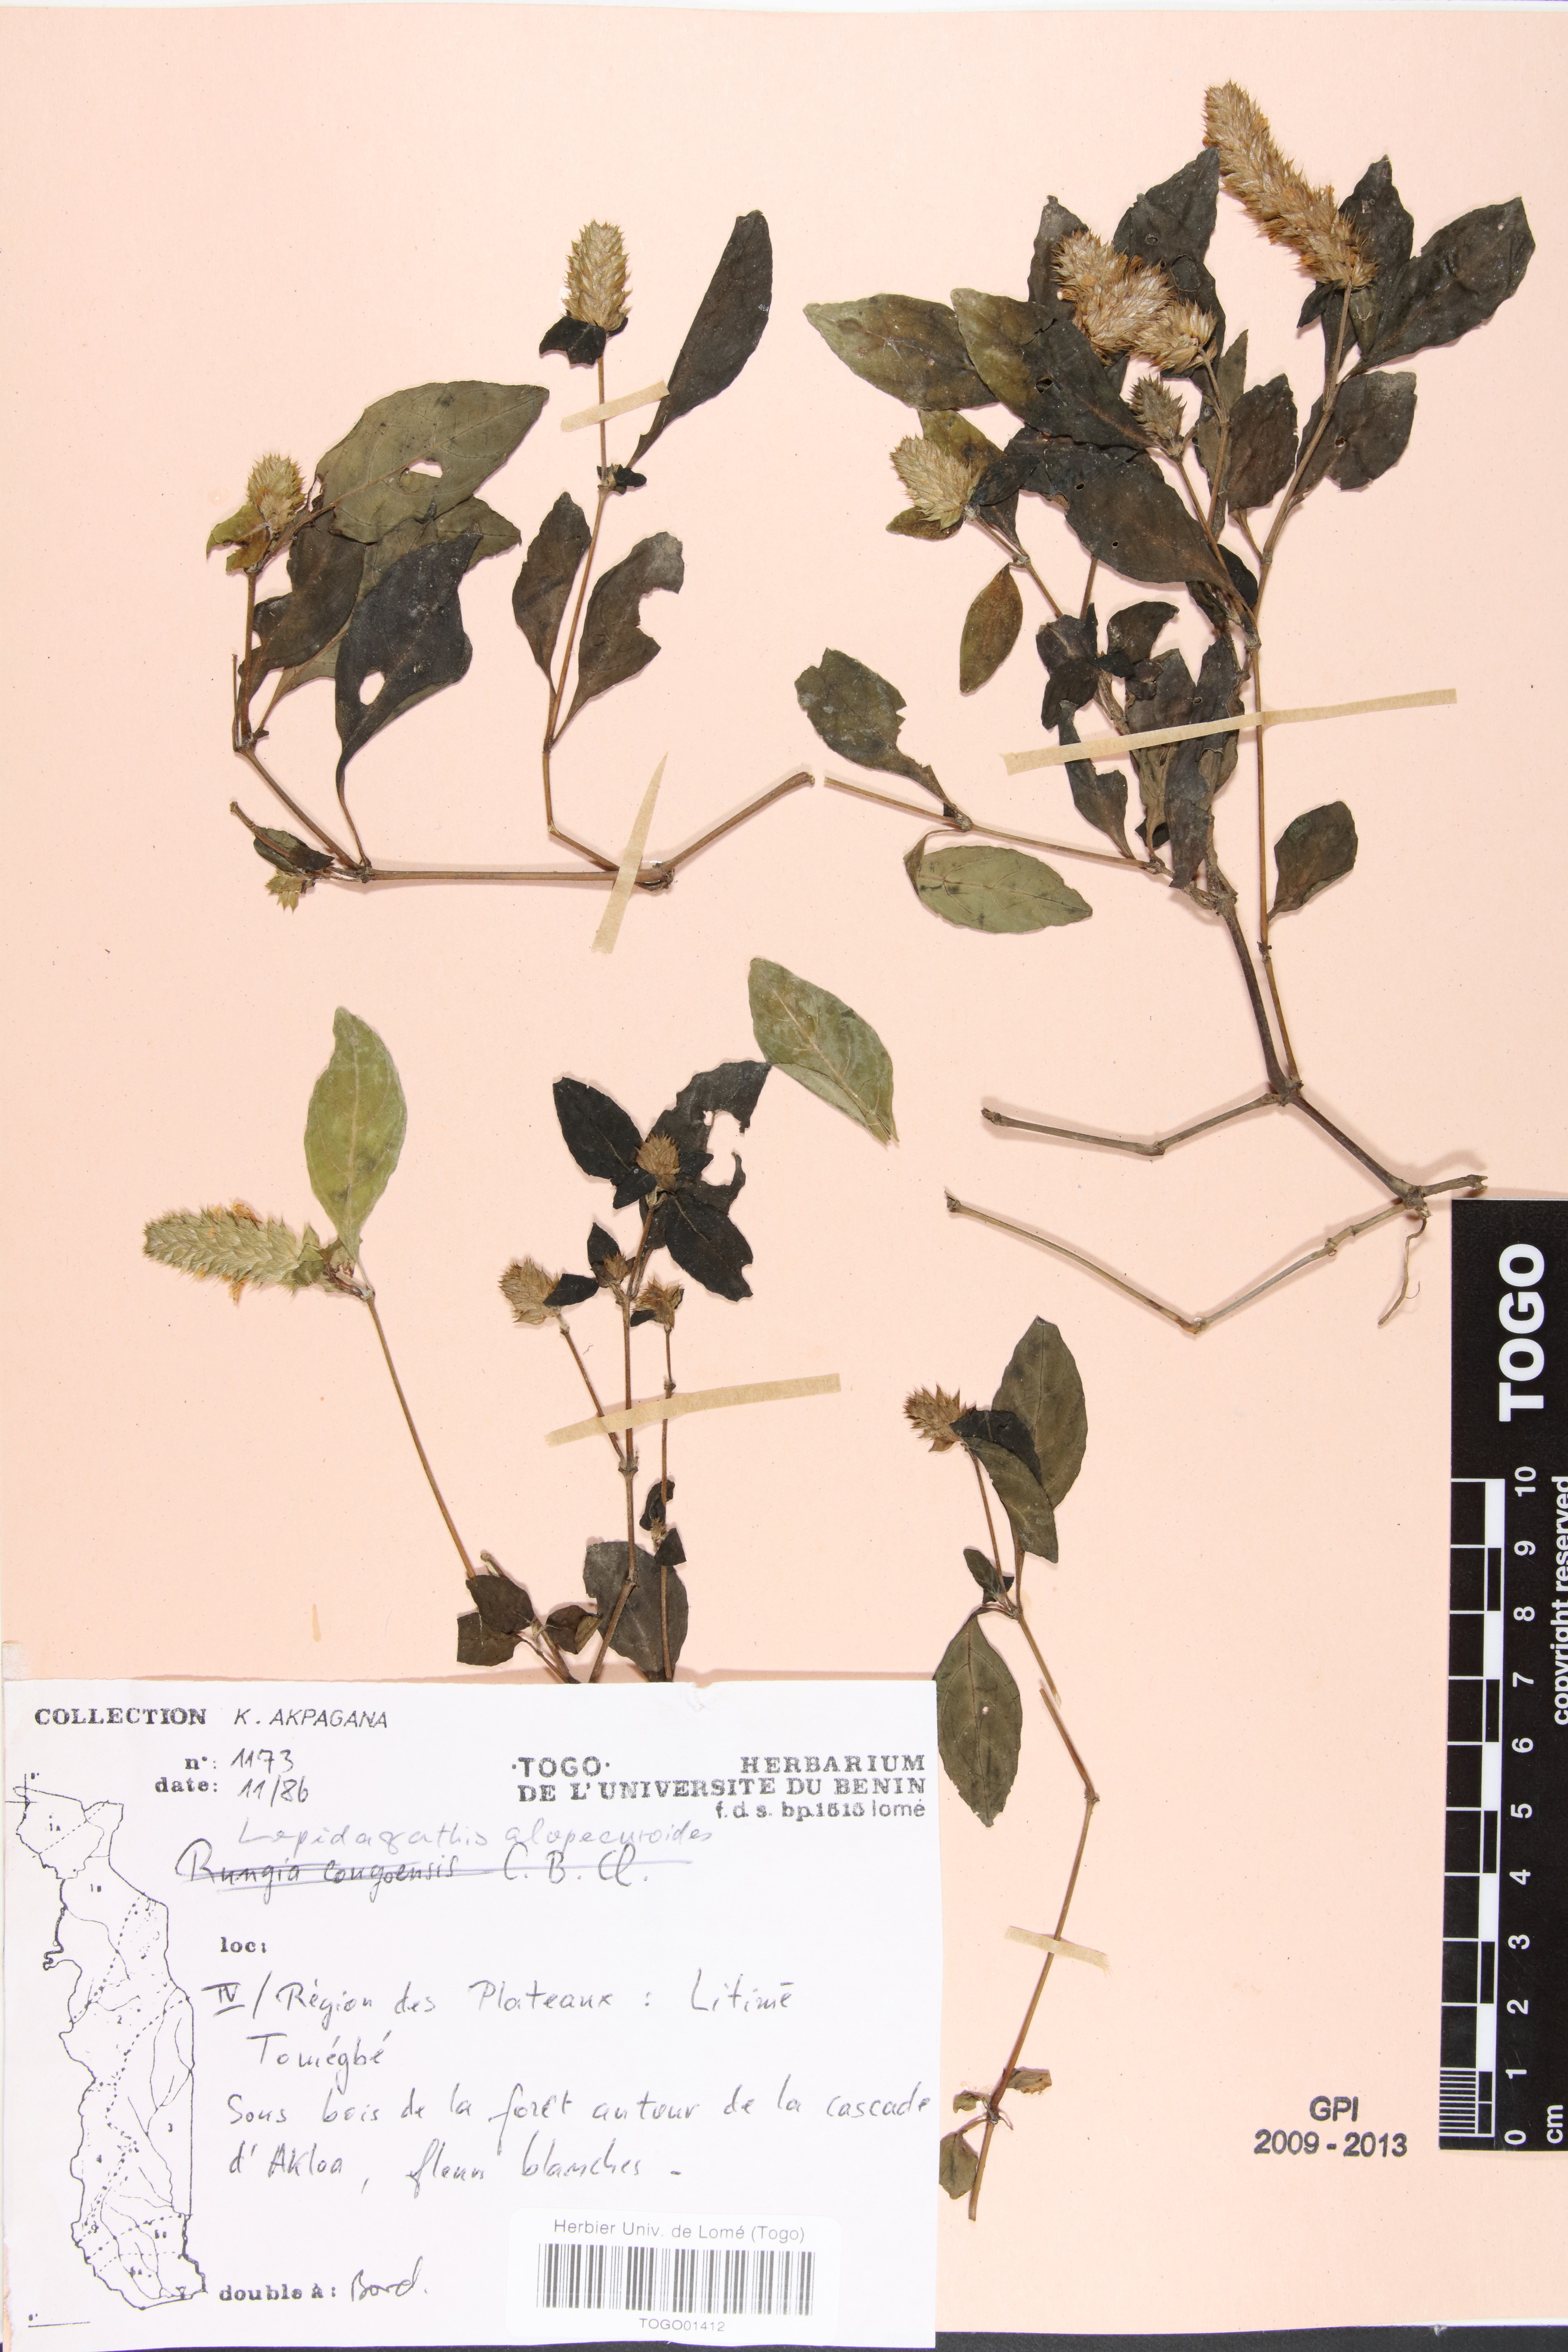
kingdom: Plantae
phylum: Tracheophyta
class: Magnoliopsida
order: Lamiales
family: Acanthaceae
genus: Lepidagathis
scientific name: Lepidagathis alopecuroidea
